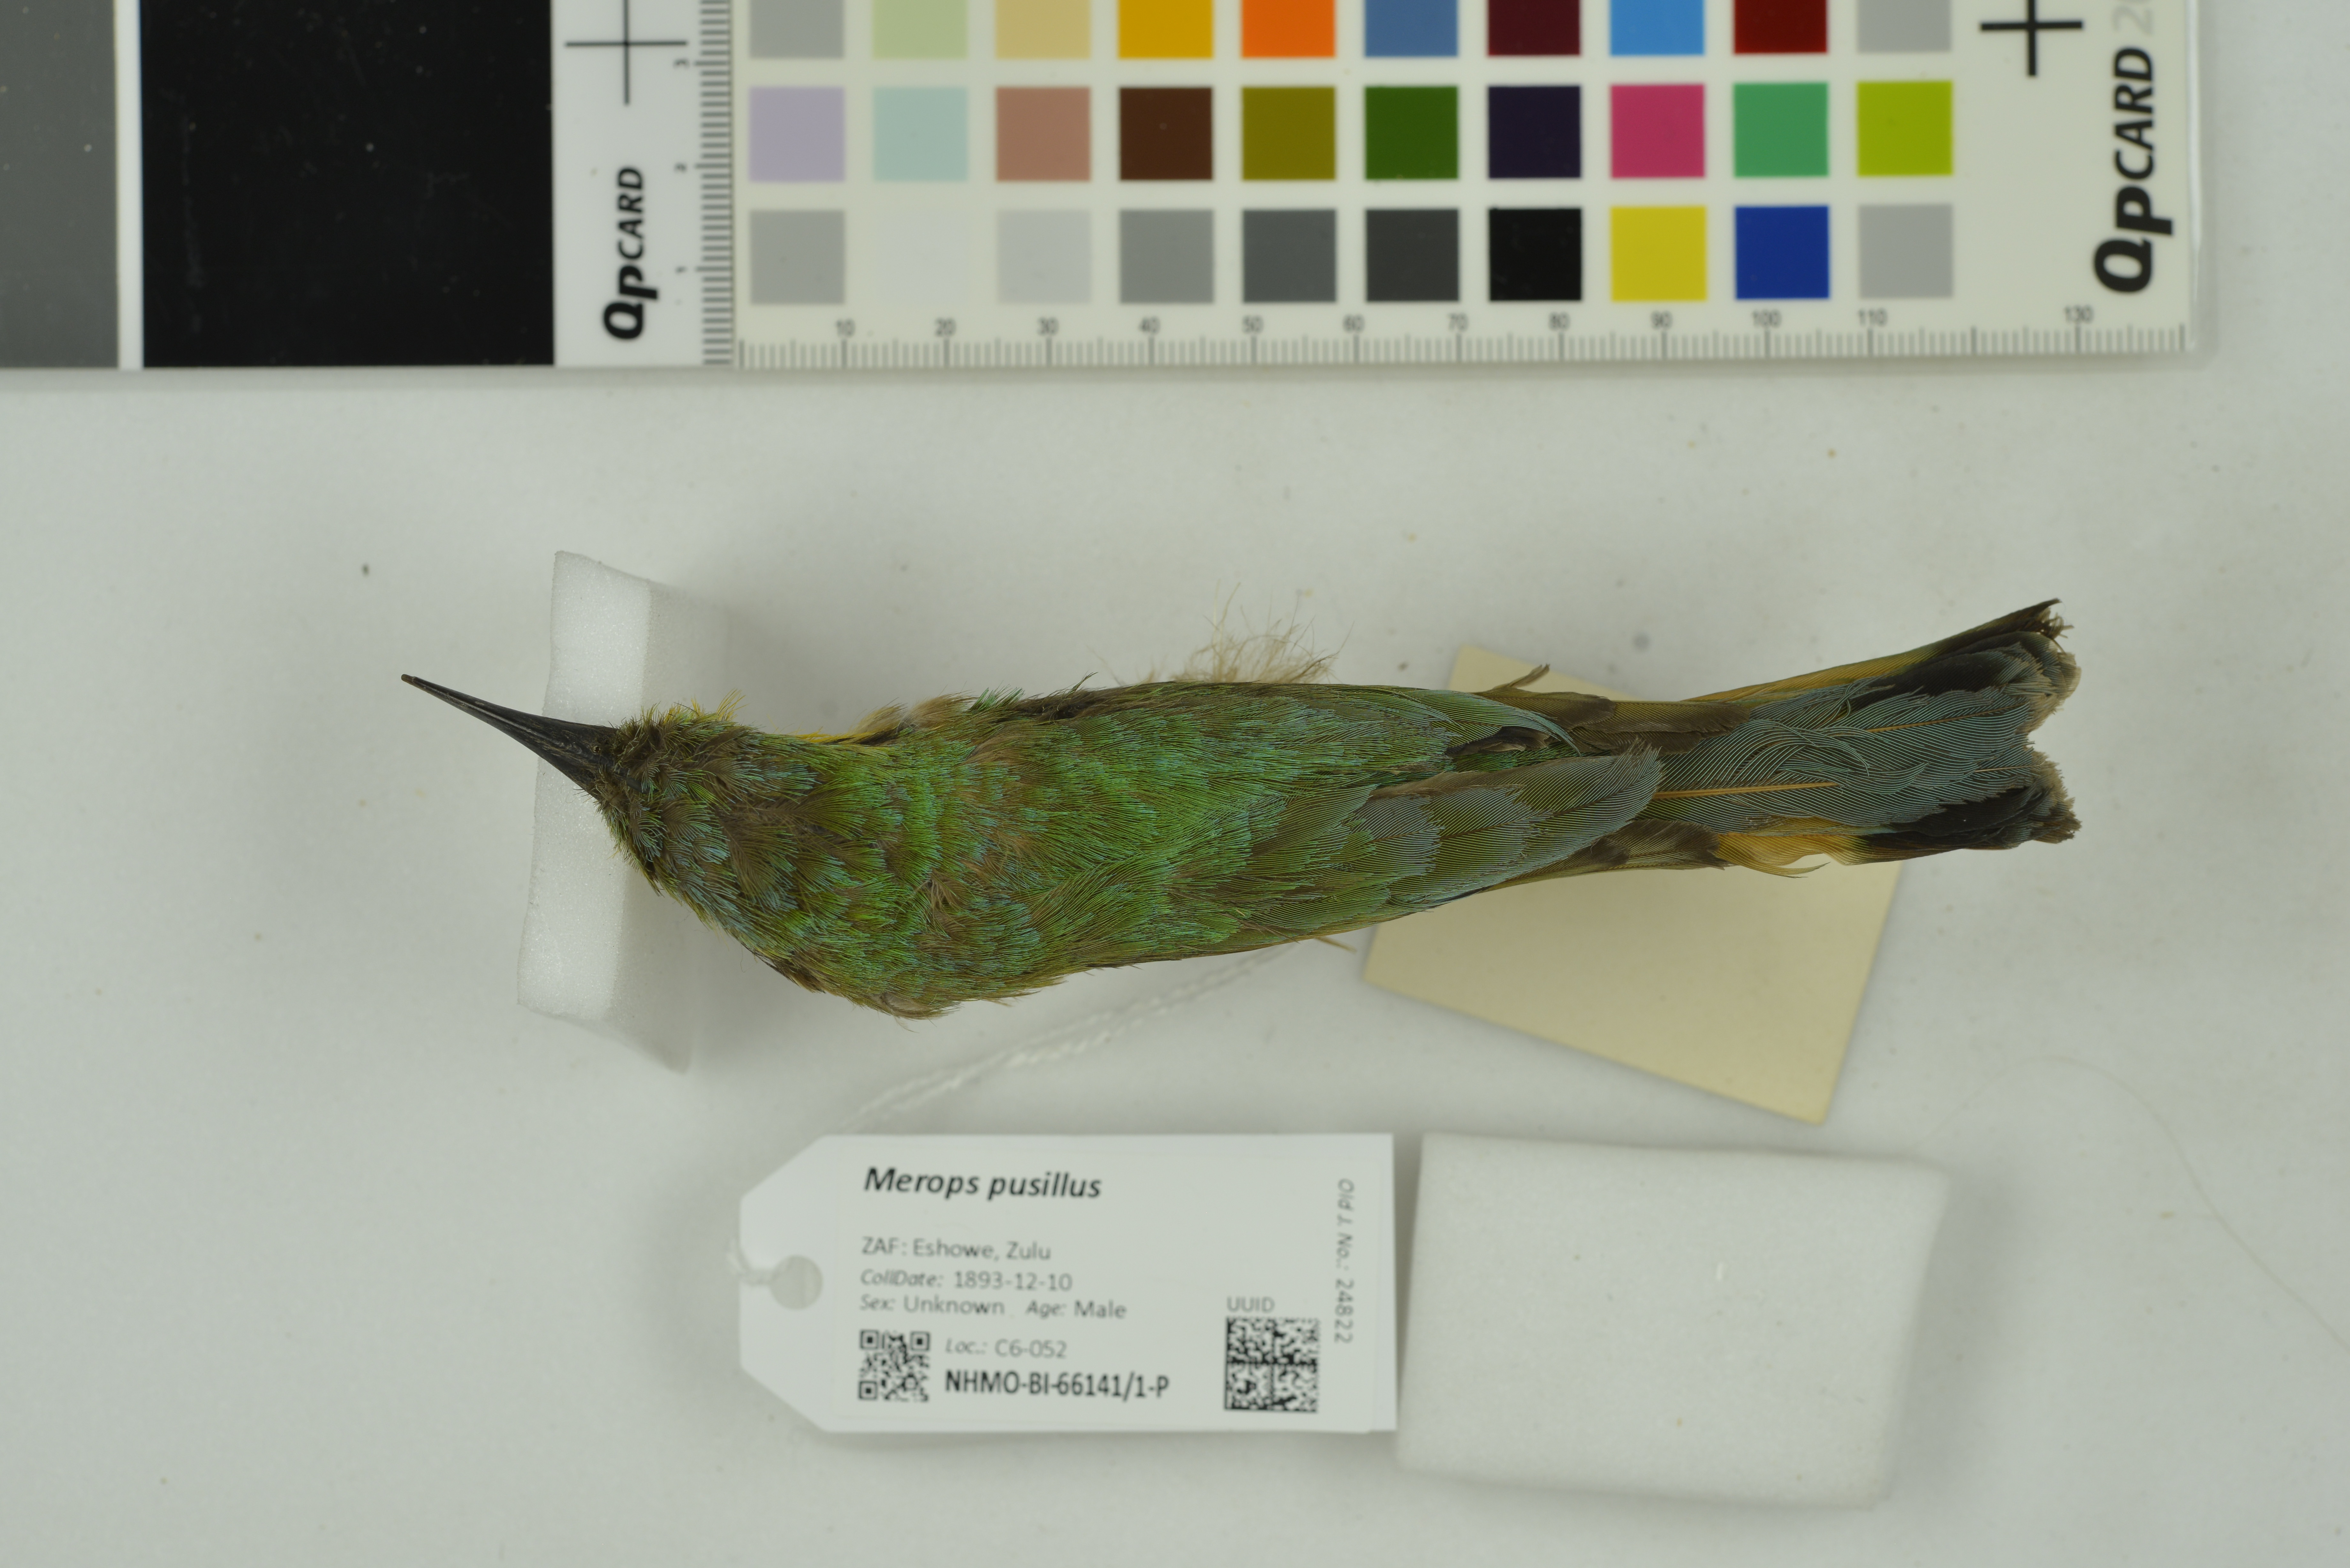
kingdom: Animalia
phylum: Chordata
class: Aves
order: Coraciiformes
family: Meropidae
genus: Merops
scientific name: Merops pusillus
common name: Little bee-eater
